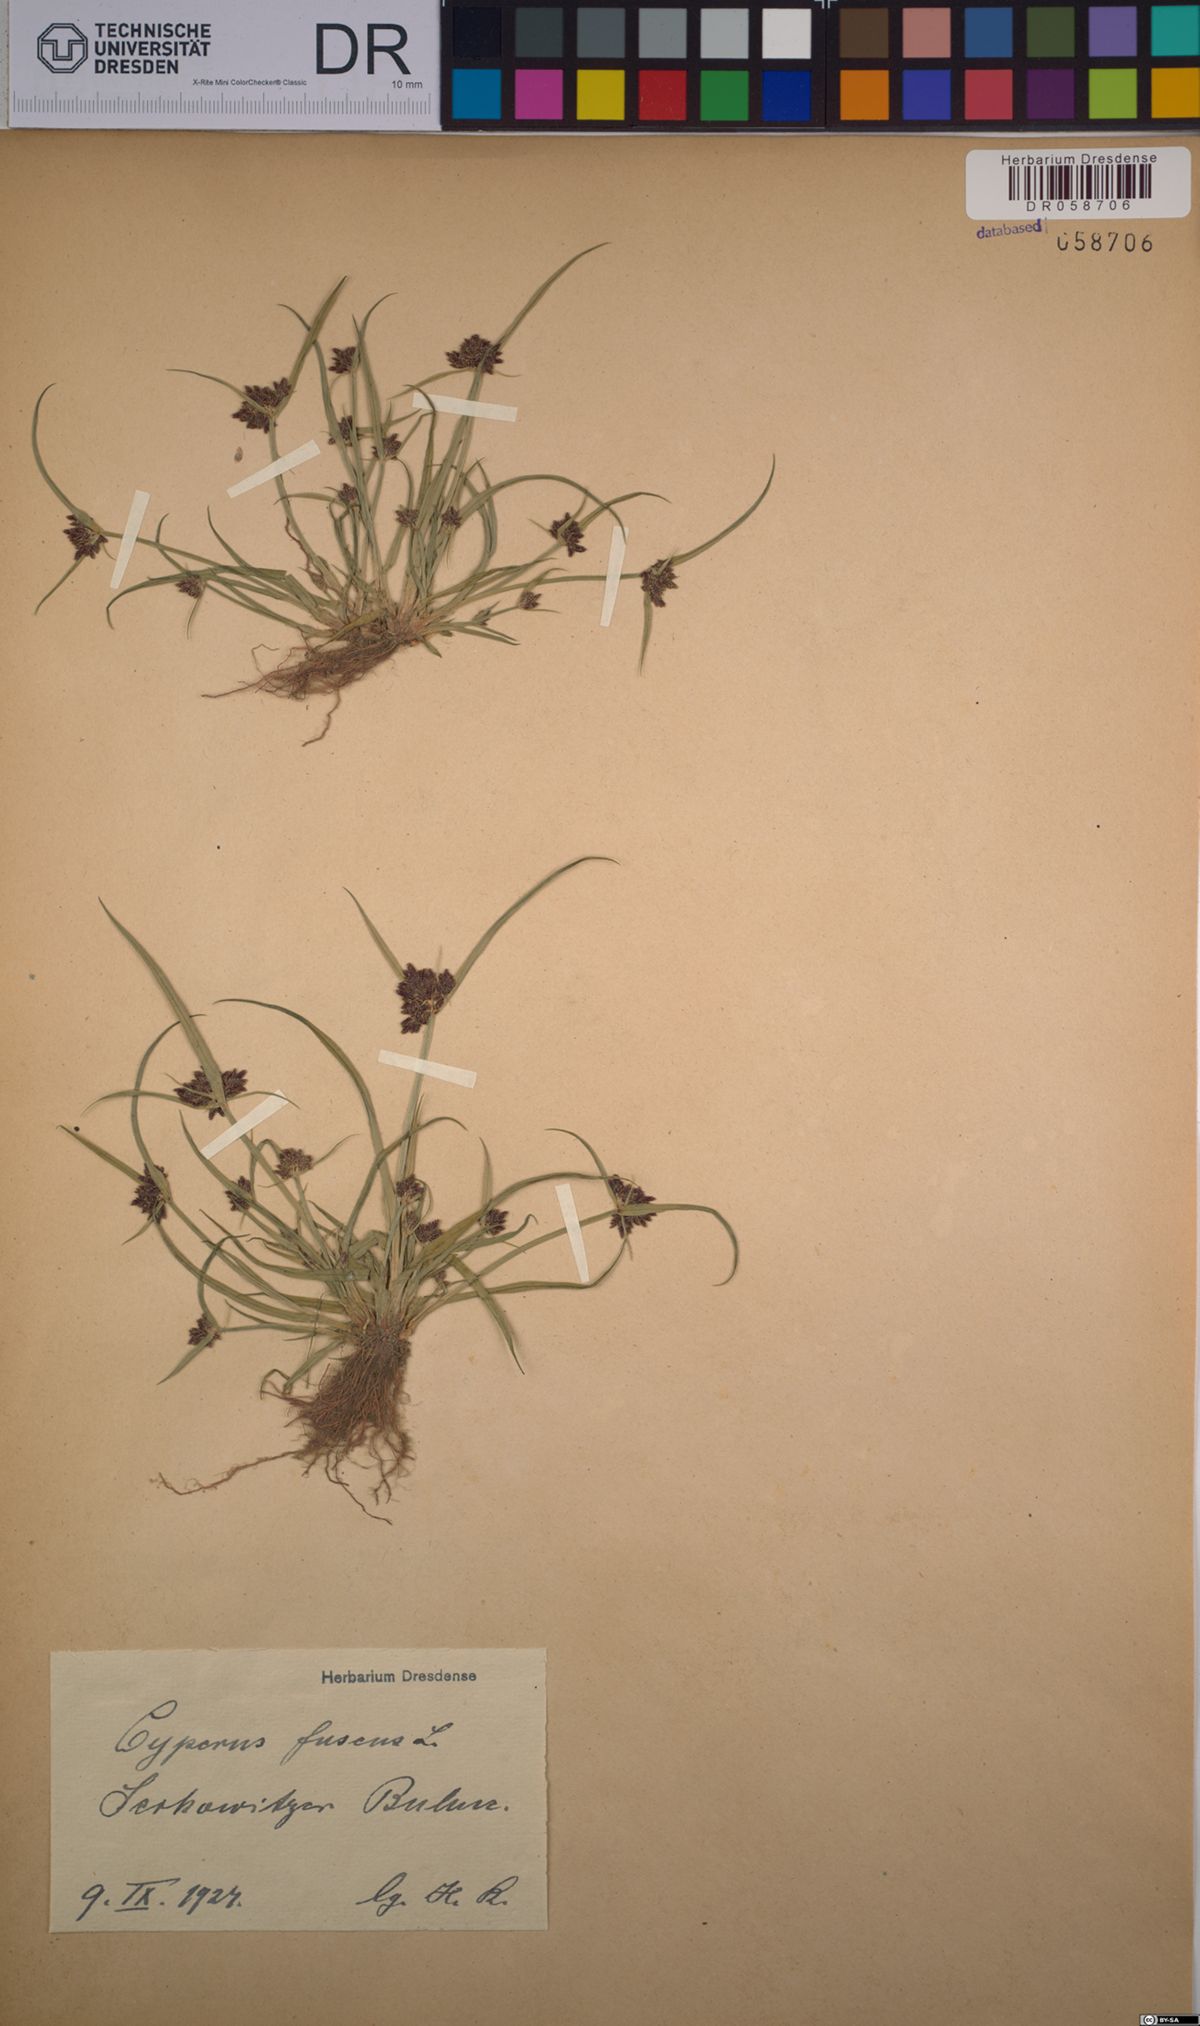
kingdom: Plantae
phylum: Tracheophyta
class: Liliopsida
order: Poales
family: Cyperaceae
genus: Cyperus
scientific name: Cyperus fuscus
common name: Brown galingale
